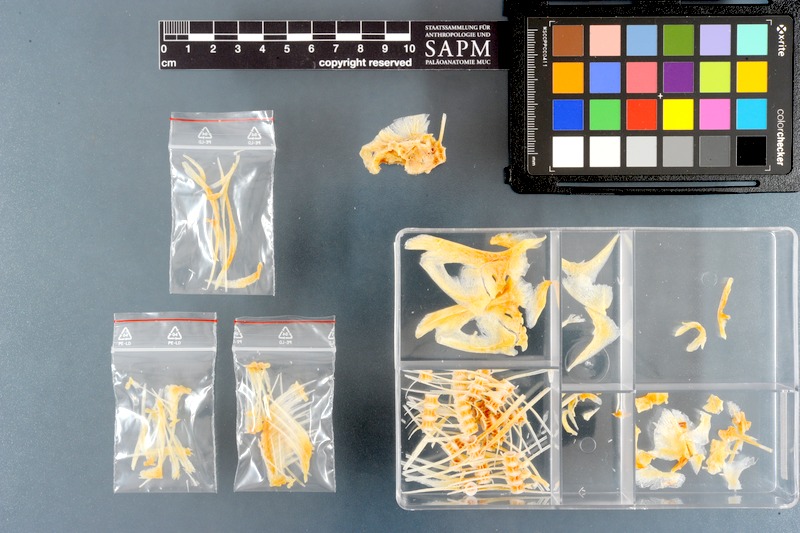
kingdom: Animalia
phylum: Chordata
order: Perciformes
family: Stromateidae
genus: Pampus
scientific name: Pampus chinensis
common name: Chinese silver pomfret
